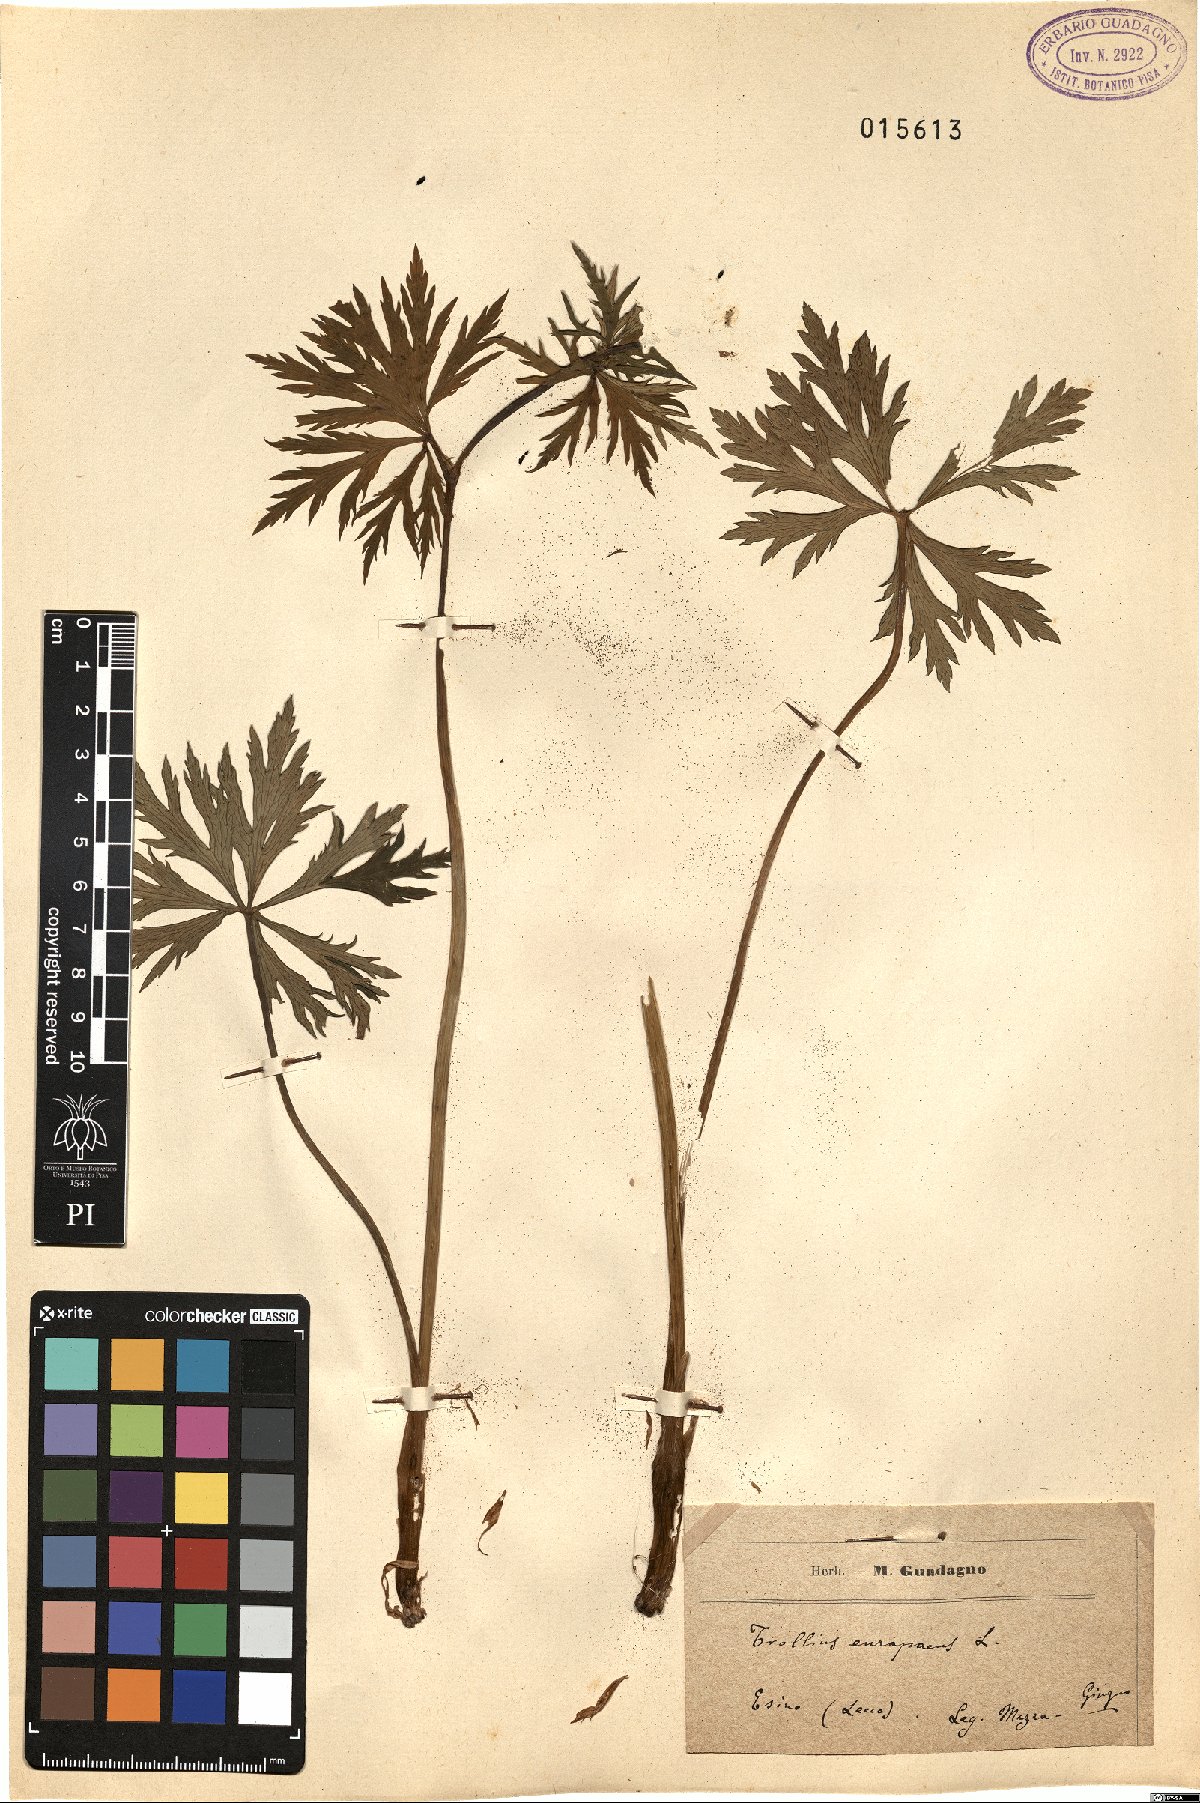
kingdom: Plantae
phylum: Tracheophyta
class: Magnoliopsida
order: Ranunculales
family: Ranunculaceae
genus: Trollius
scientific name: Trollius europaeus
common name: European globeflower
